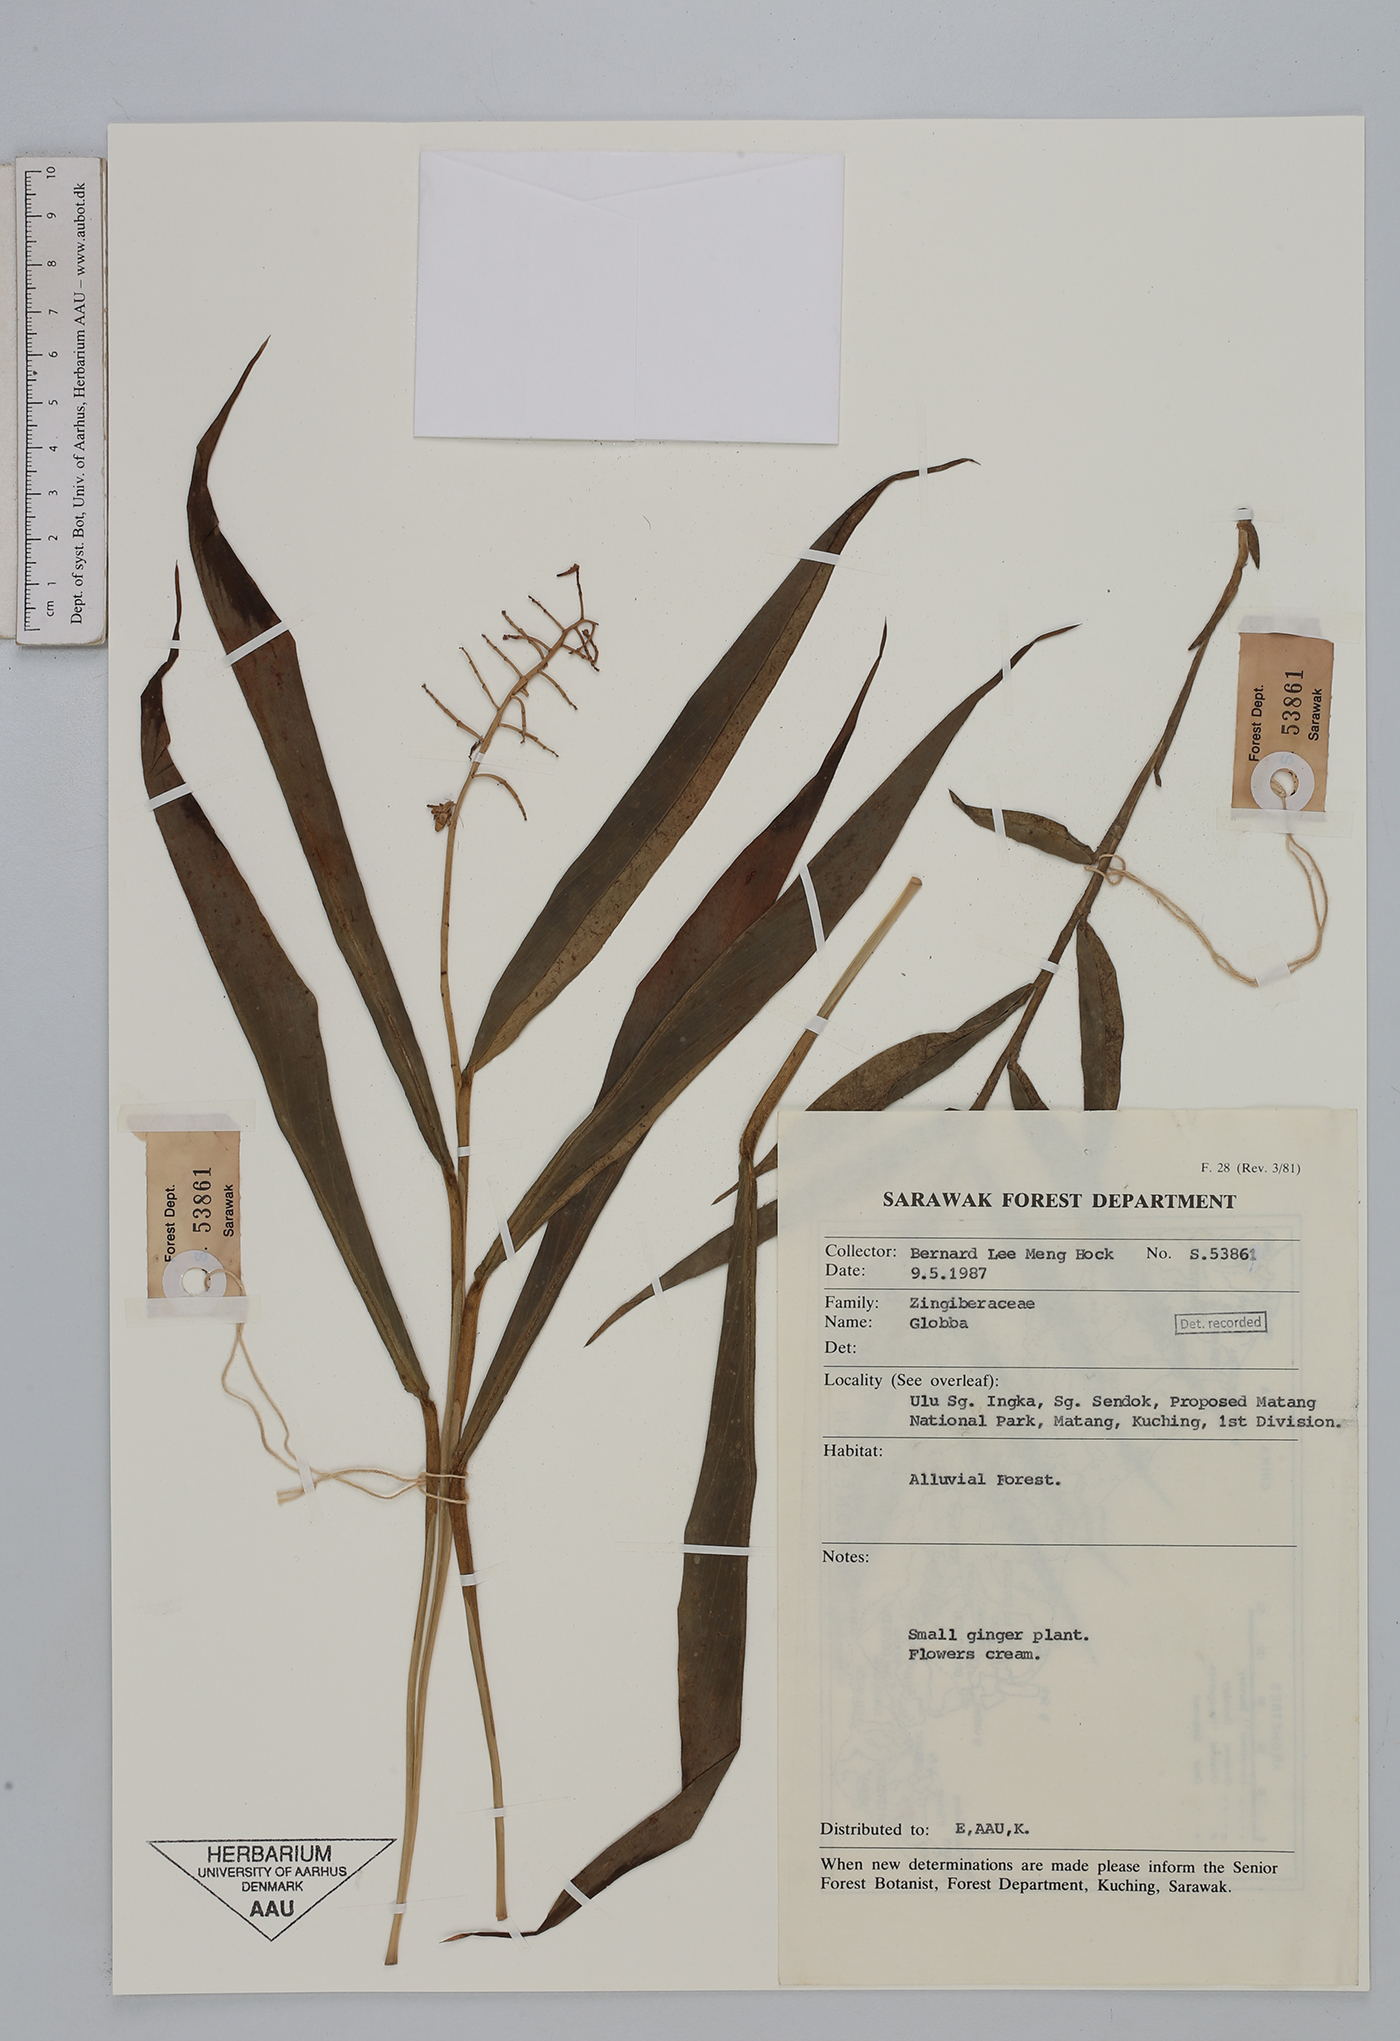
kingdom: Plantae
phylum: Tracheophyta
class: Liliopsida
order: Zingiberales
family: Zingiberaceae
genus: Globba
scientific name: Globba
